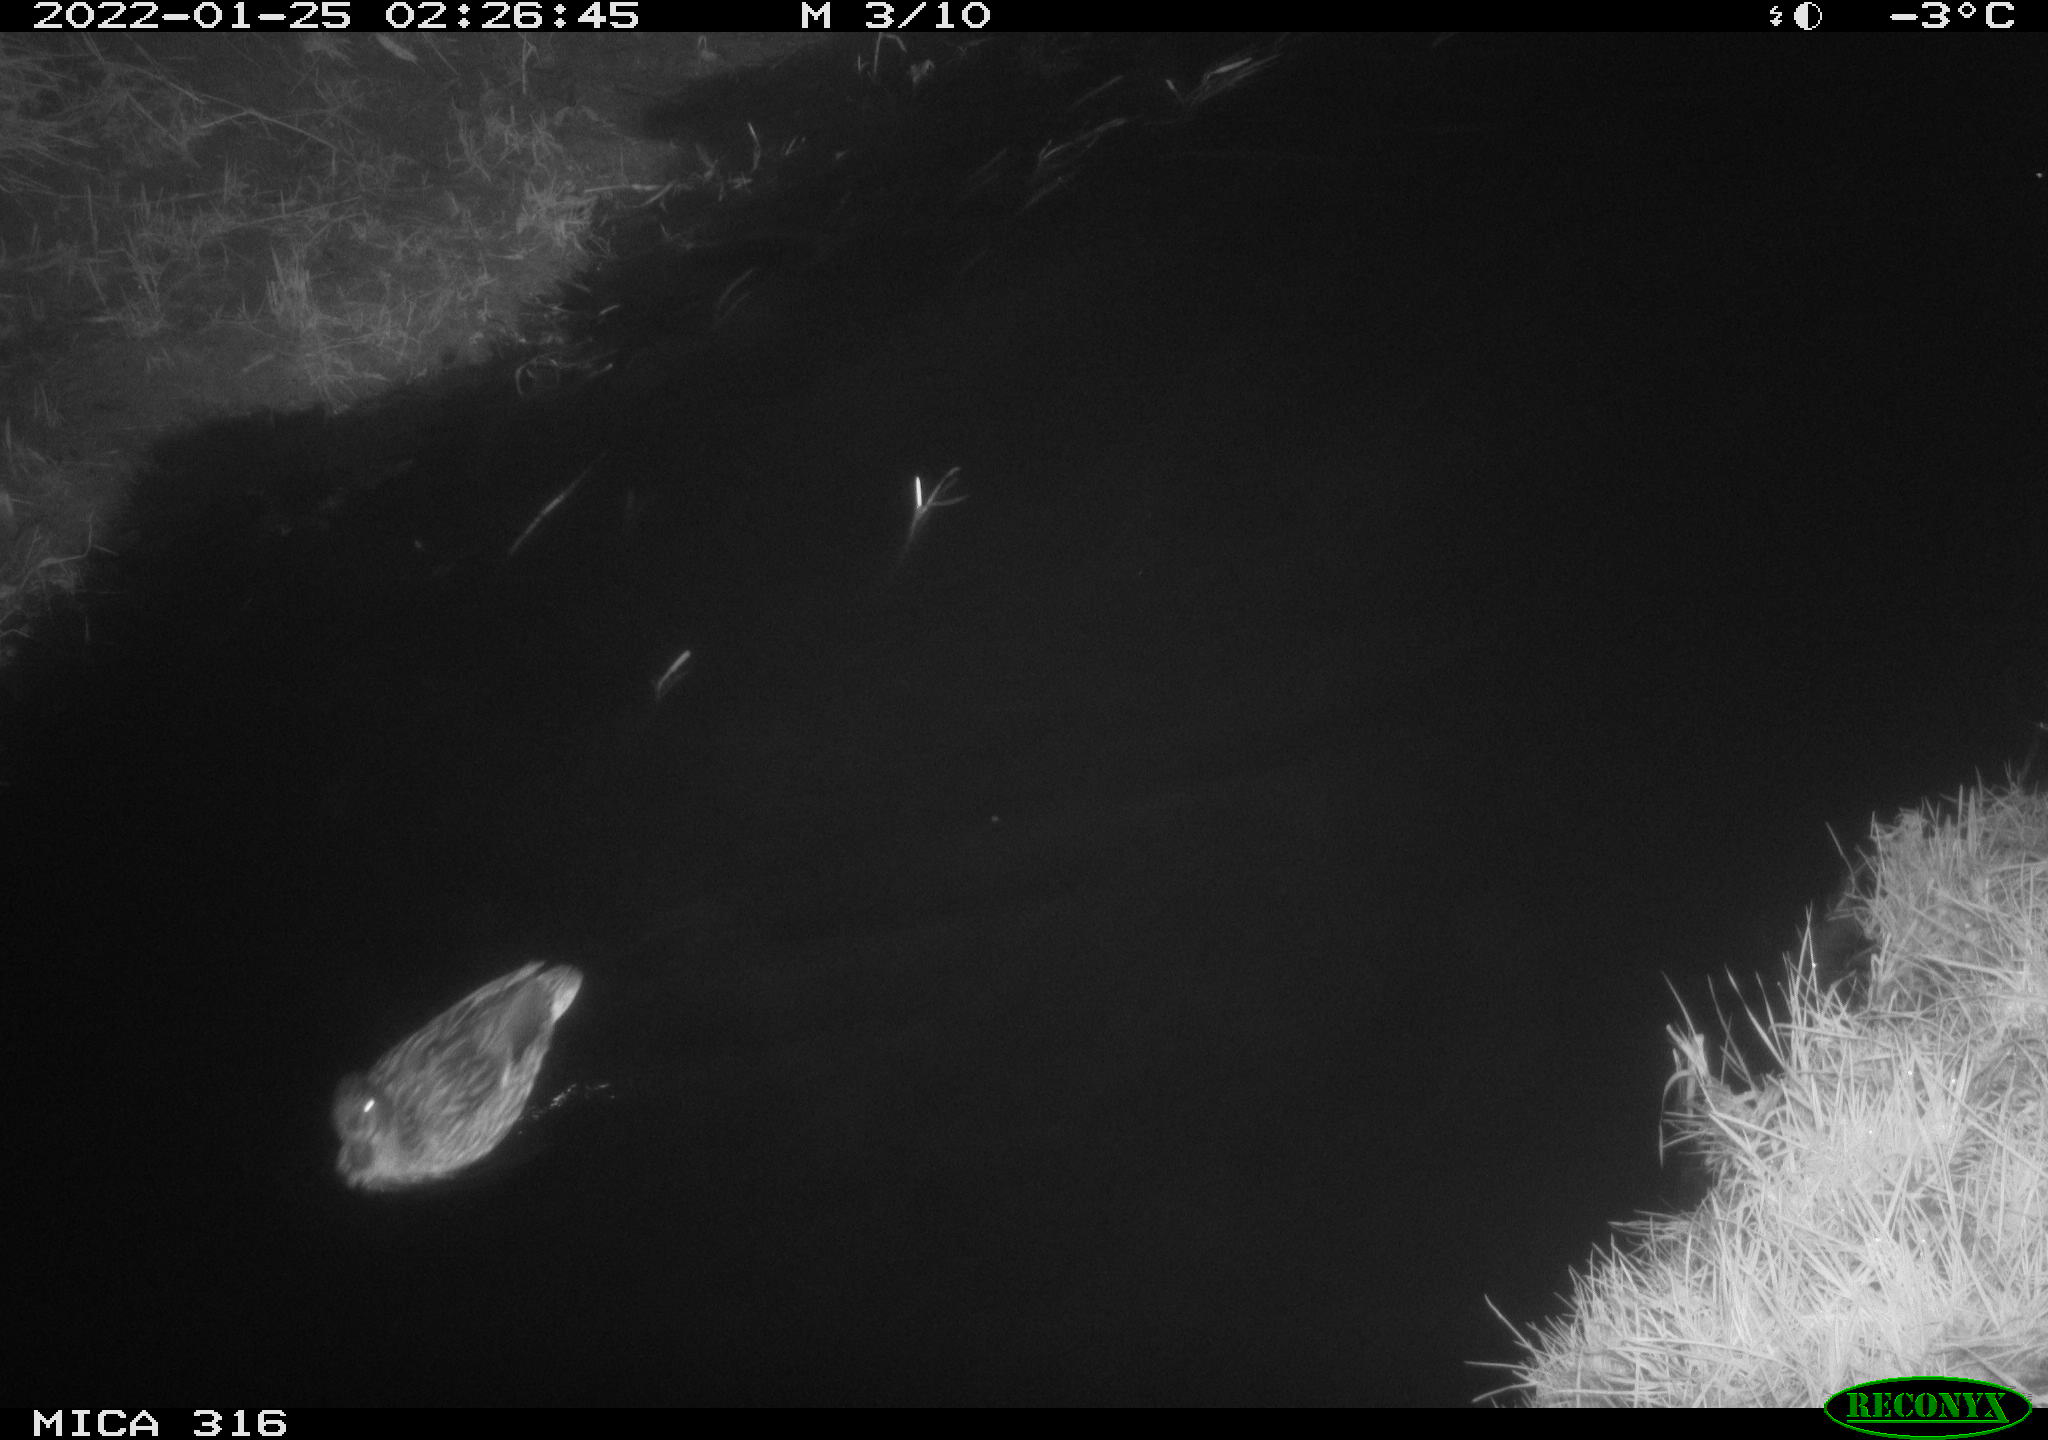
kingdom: Animalia
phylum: Chordata
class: Aves
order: Anseriformes
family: Anatidae
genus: Anas
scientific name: Anas platyrhynchos
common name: Mallard
